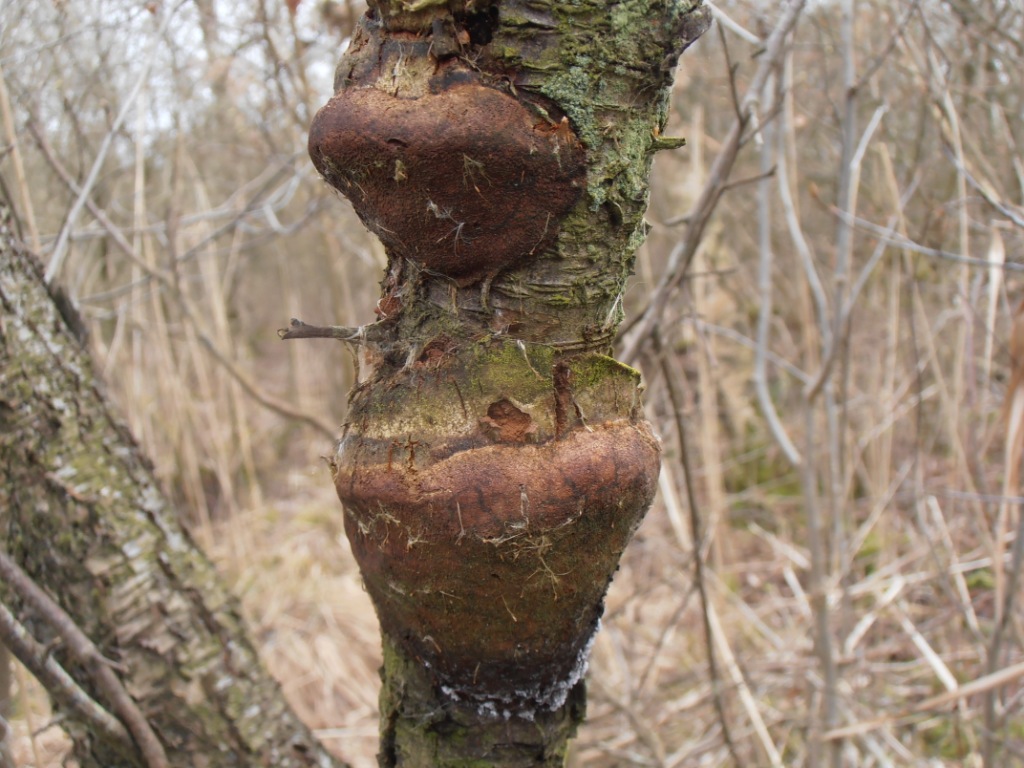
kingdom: Fungi
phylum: Basidiomycota
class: Agaricomycetes
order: Hymenochaetales
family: Hymenochaetaceae
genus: Phellinus
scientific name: Phellinus pomaceus
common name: blomme-ildporesvamp
